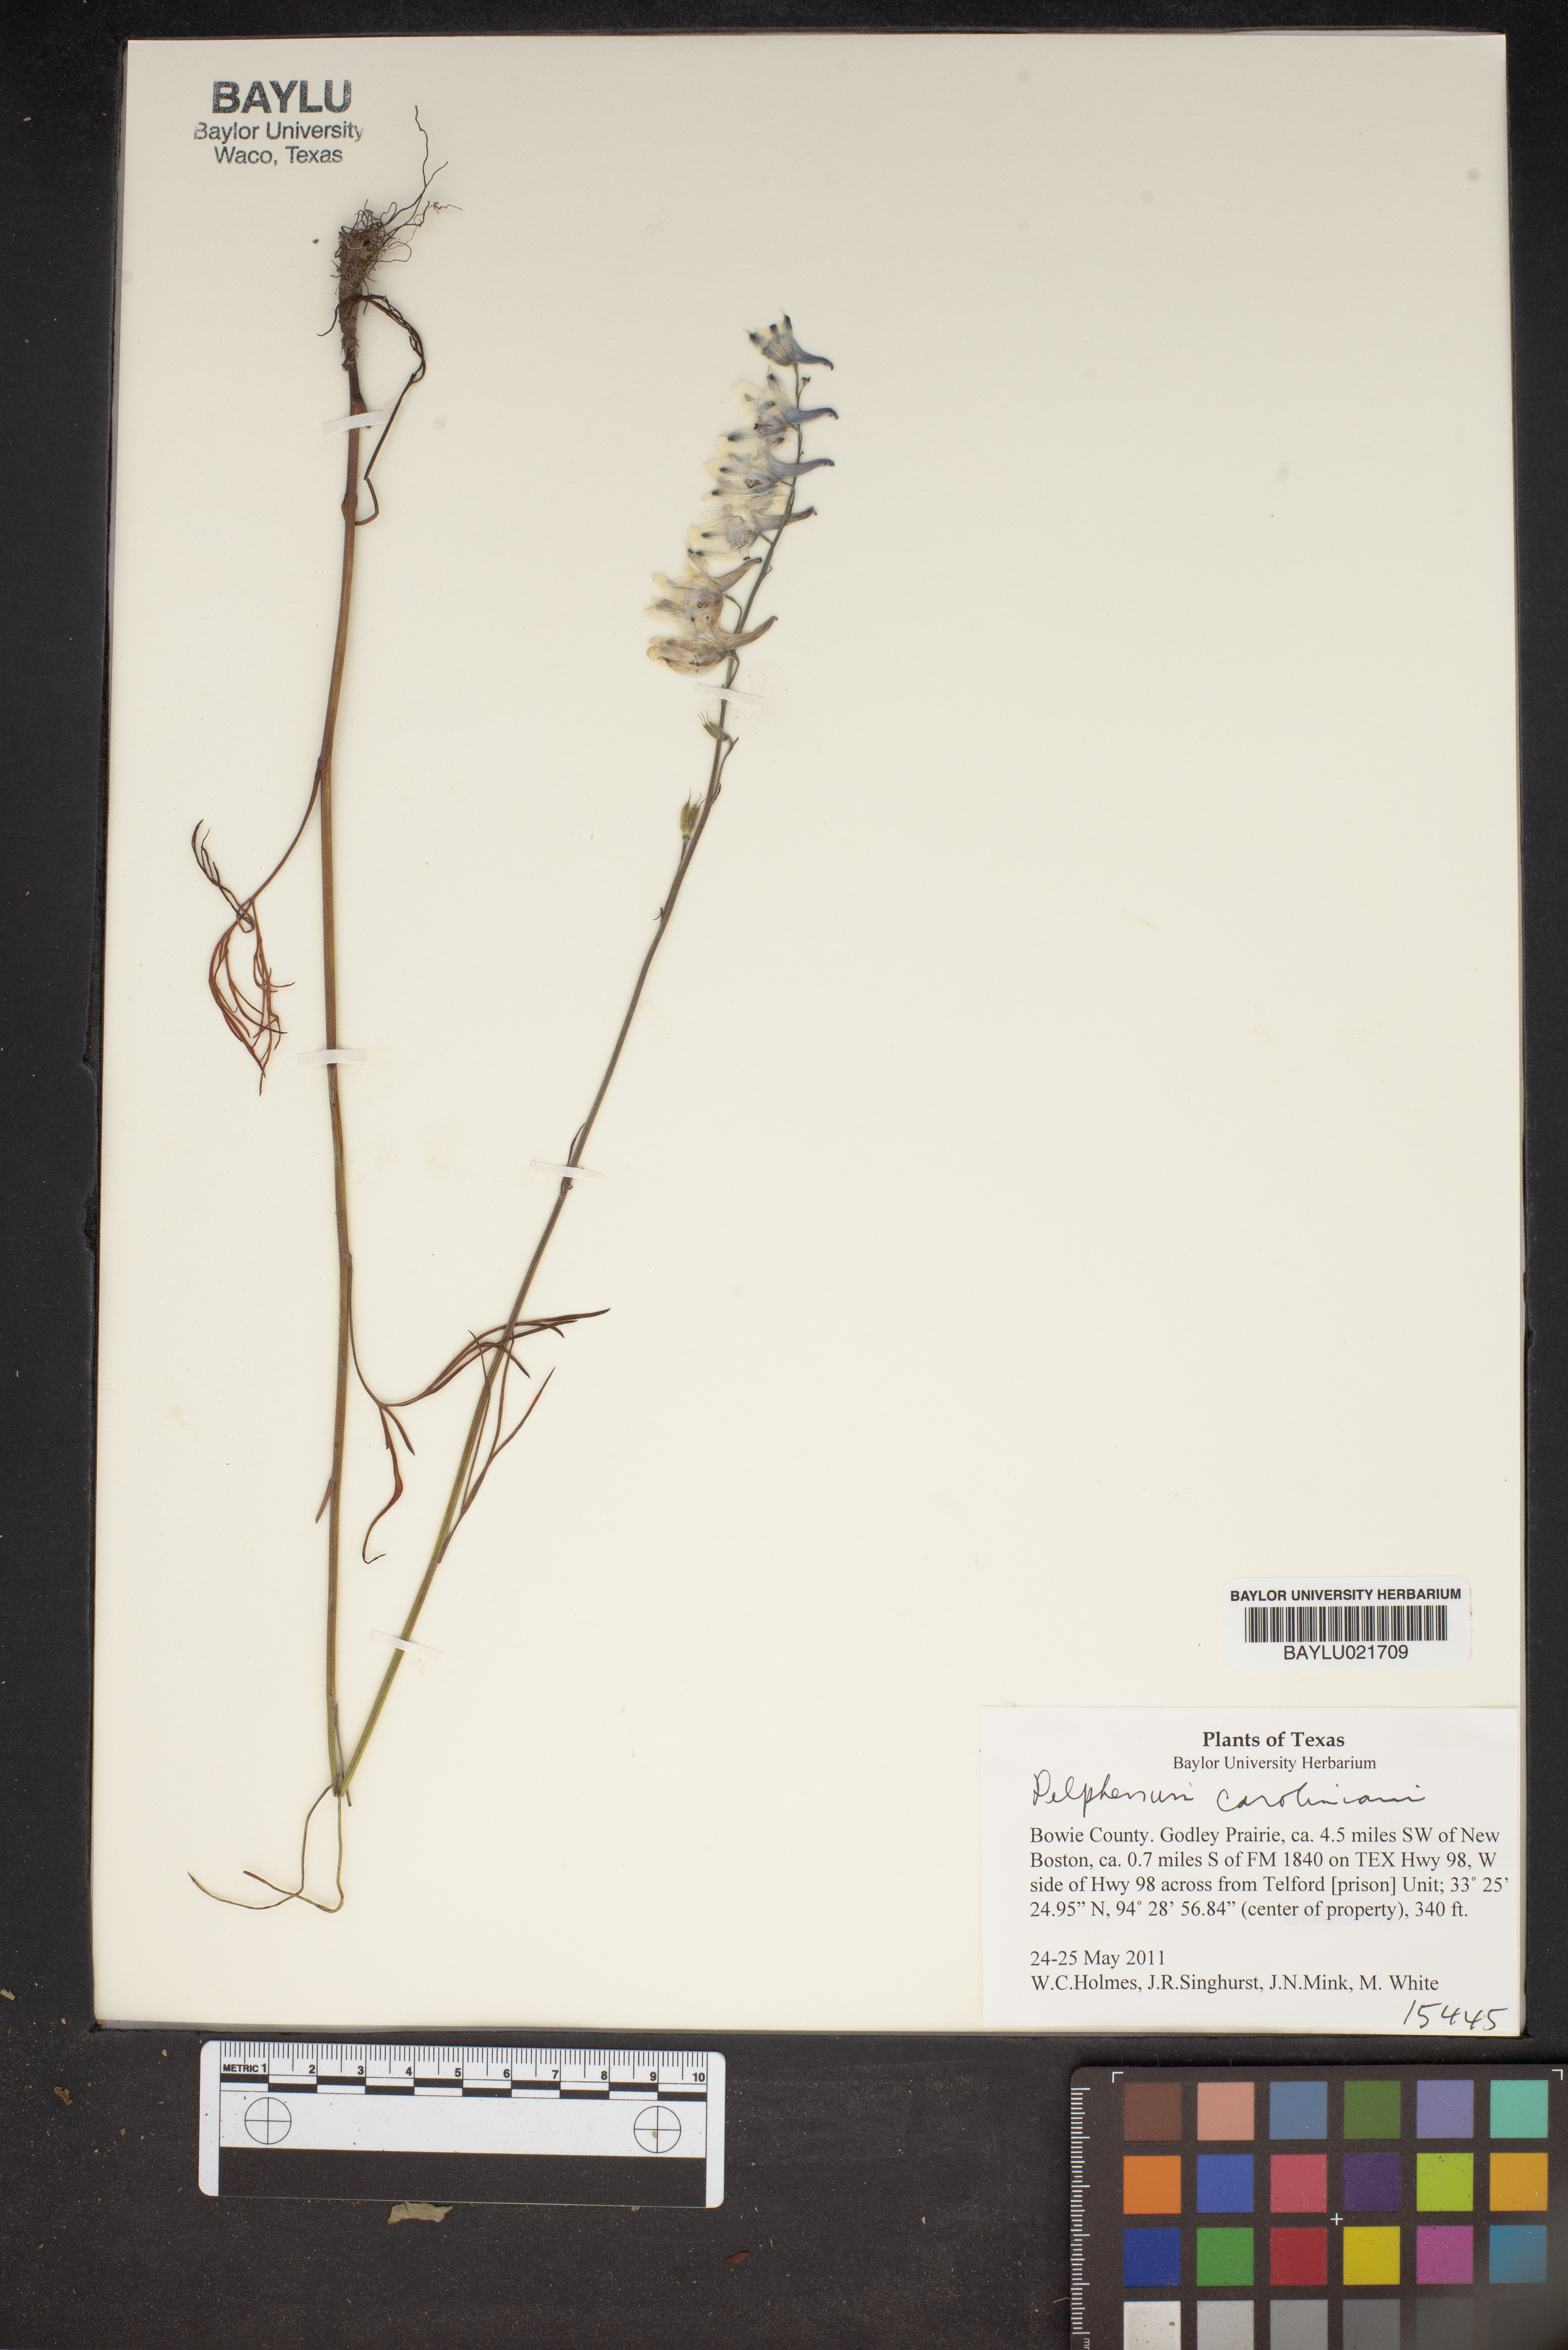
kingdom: Plantae
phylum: Tracheophyta
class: Magnoliopsida
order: Ranunculales
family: Ranunculaceae
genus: Delphinium
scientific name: Delphinium carolinianum
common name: Carolina larkspur
